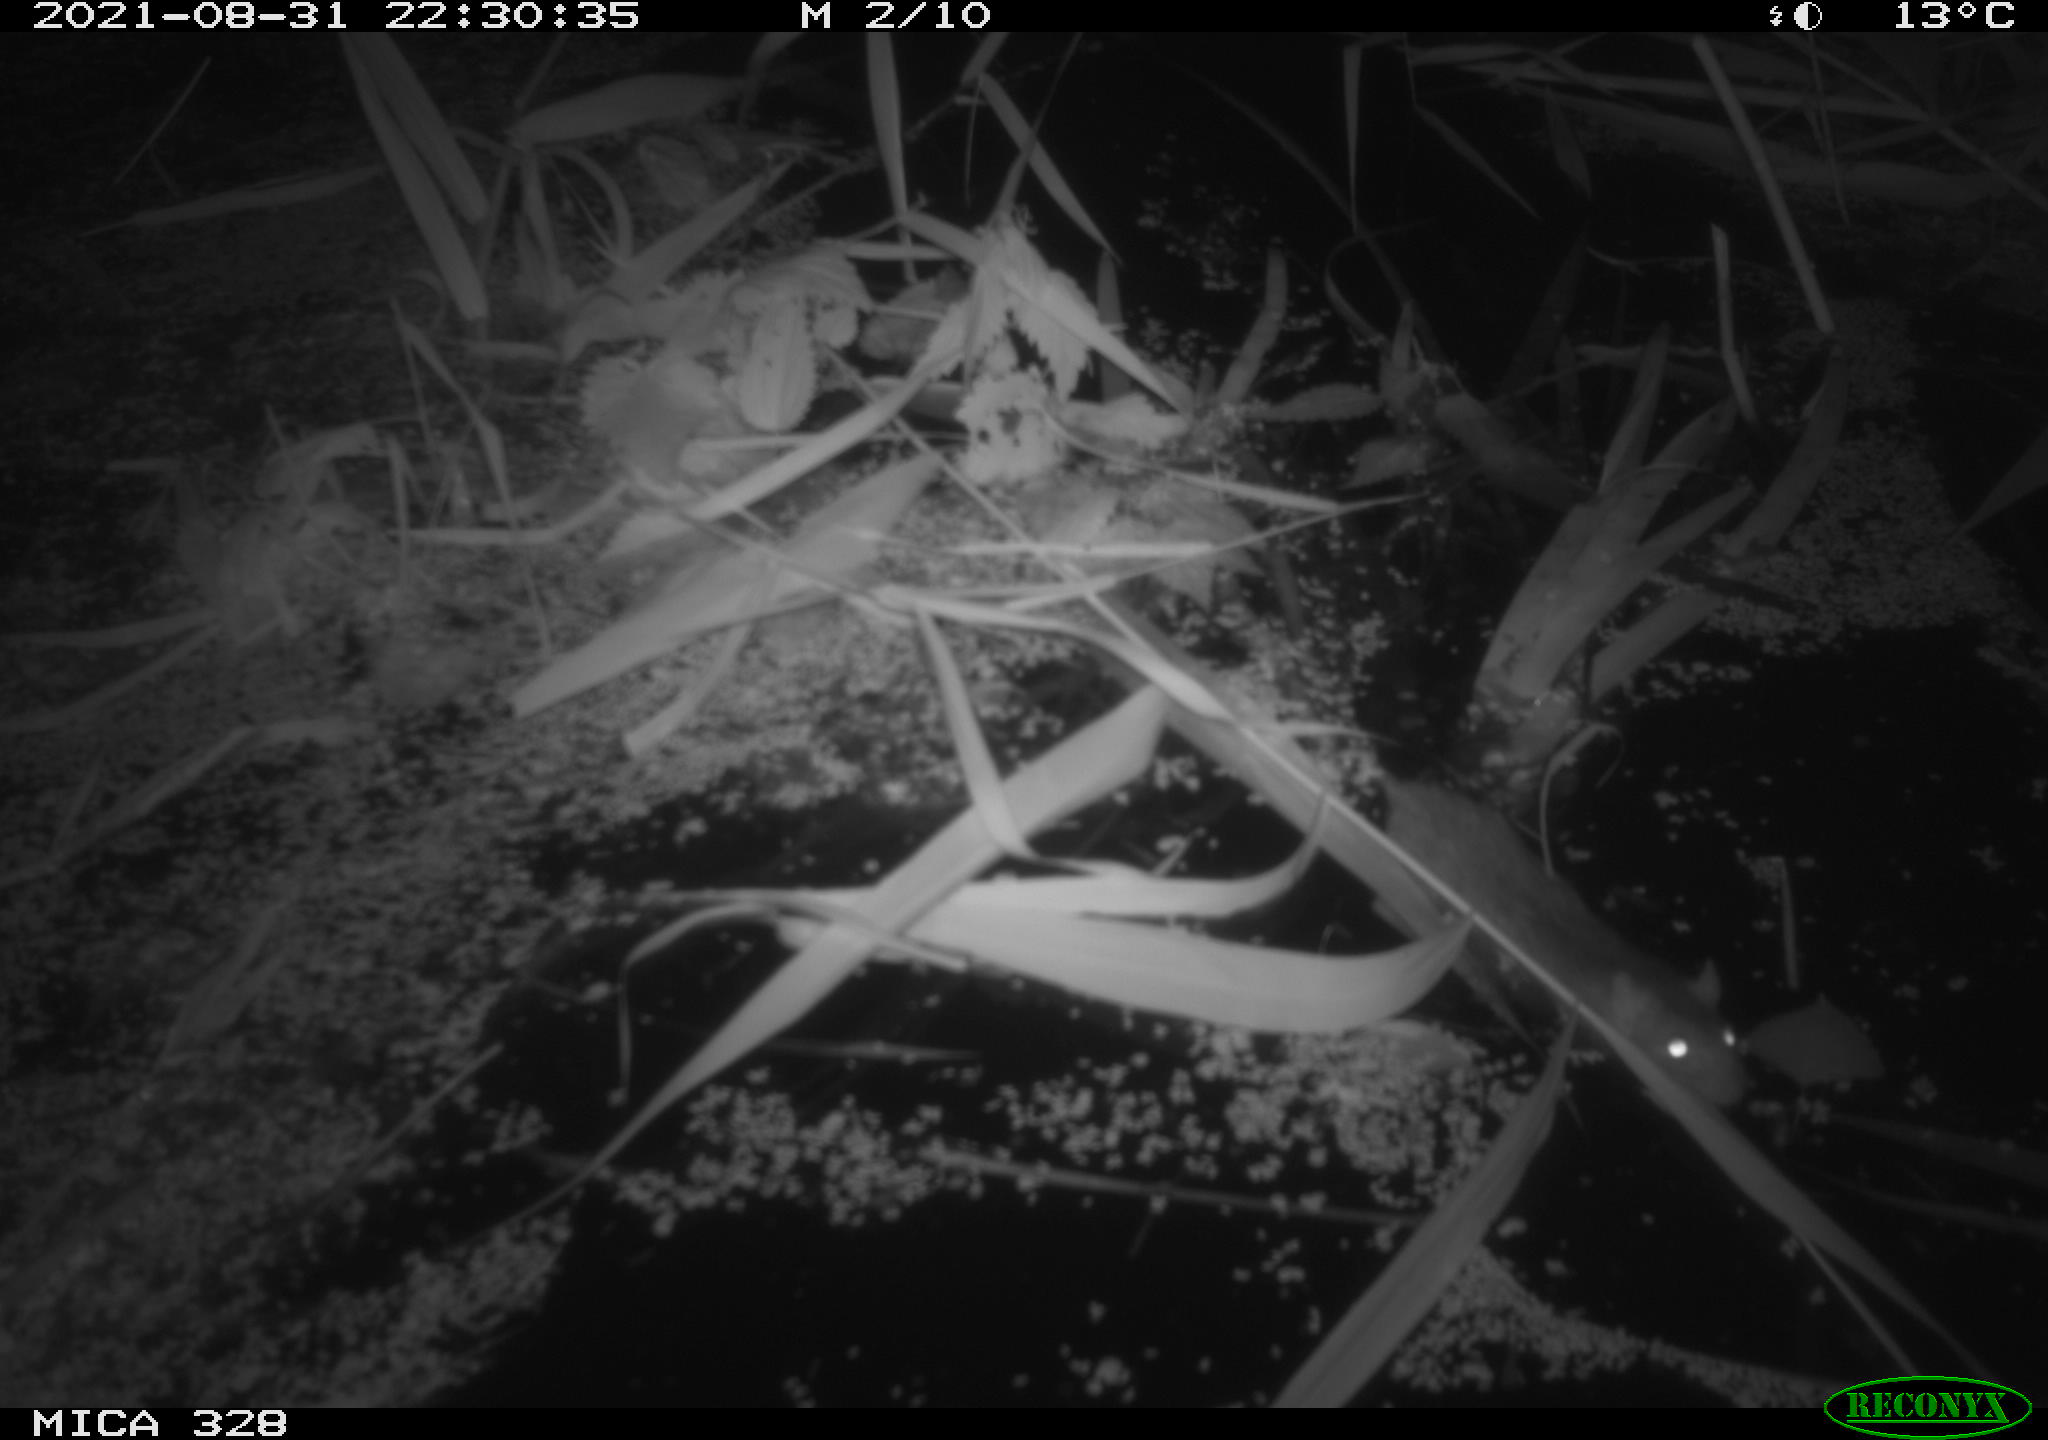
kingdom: Animalia
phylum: Chordata
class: Mammalia
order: Rodentia
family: Muridae
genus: Rattus
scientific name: Rattus norvegicus
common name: Brown rat
